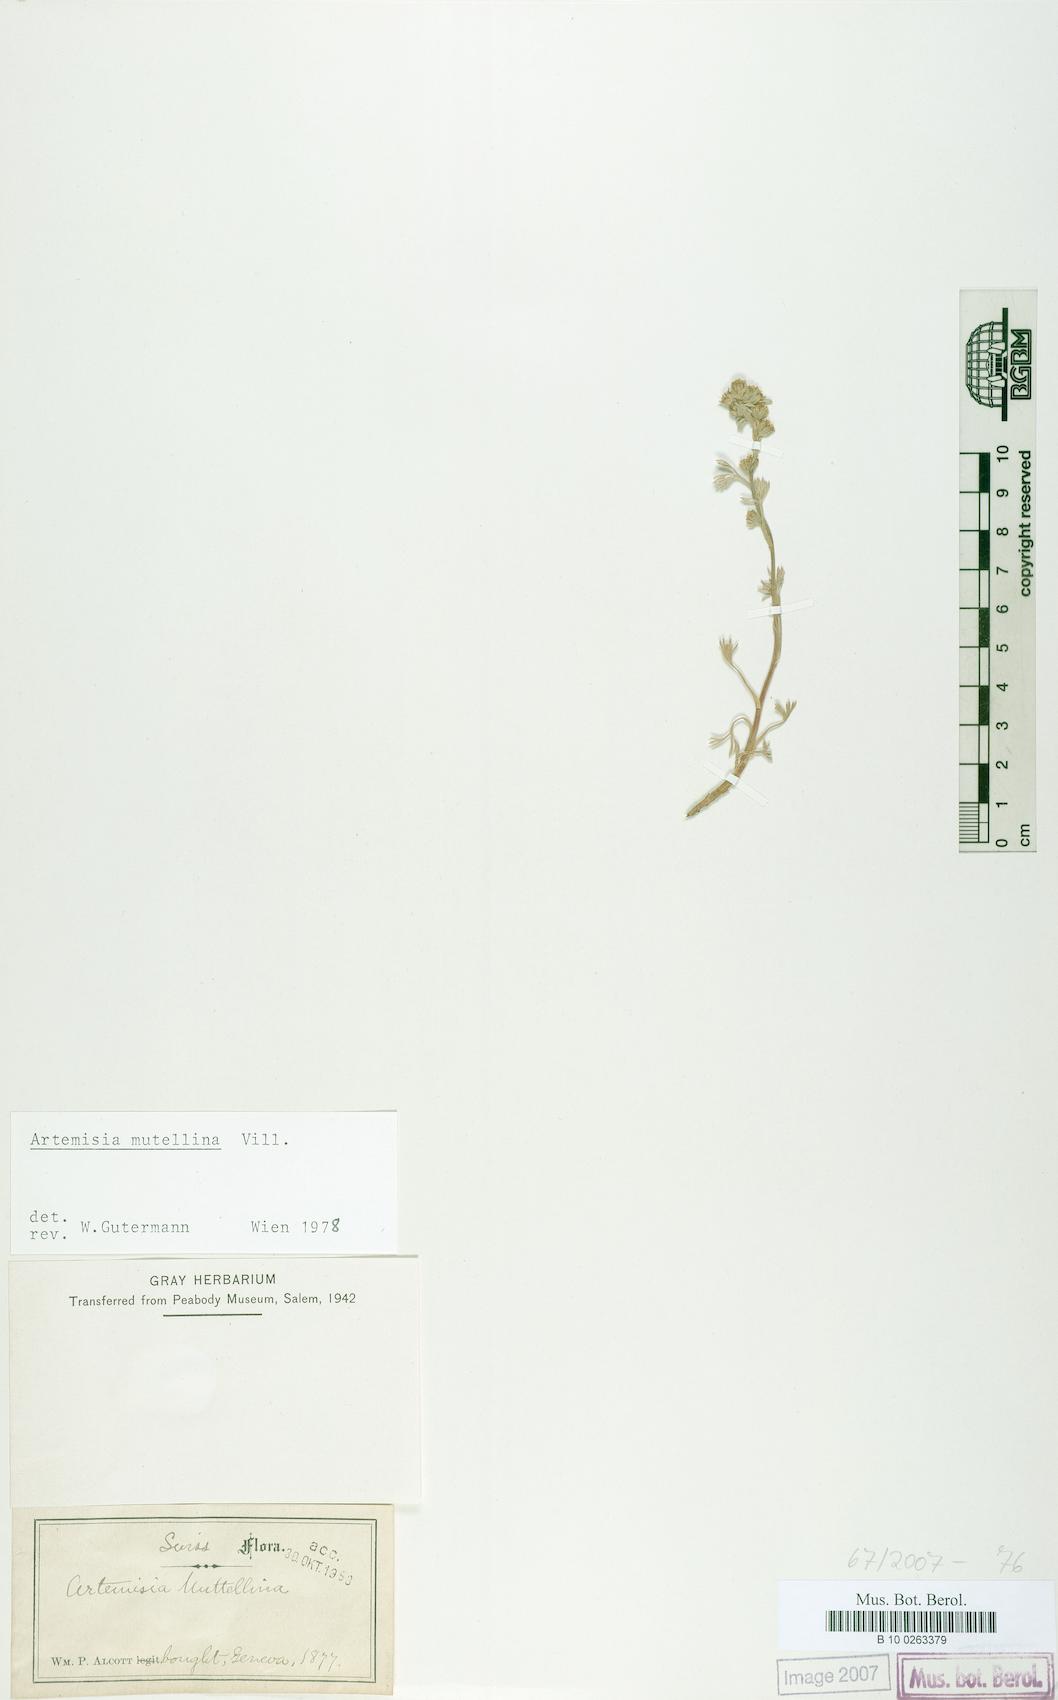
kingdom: Plantae
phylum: Tracheophyta
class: Magnoliopsida
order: Asterales
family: Asteraceae
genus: Artemisia
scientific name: Artemisia mutellina
